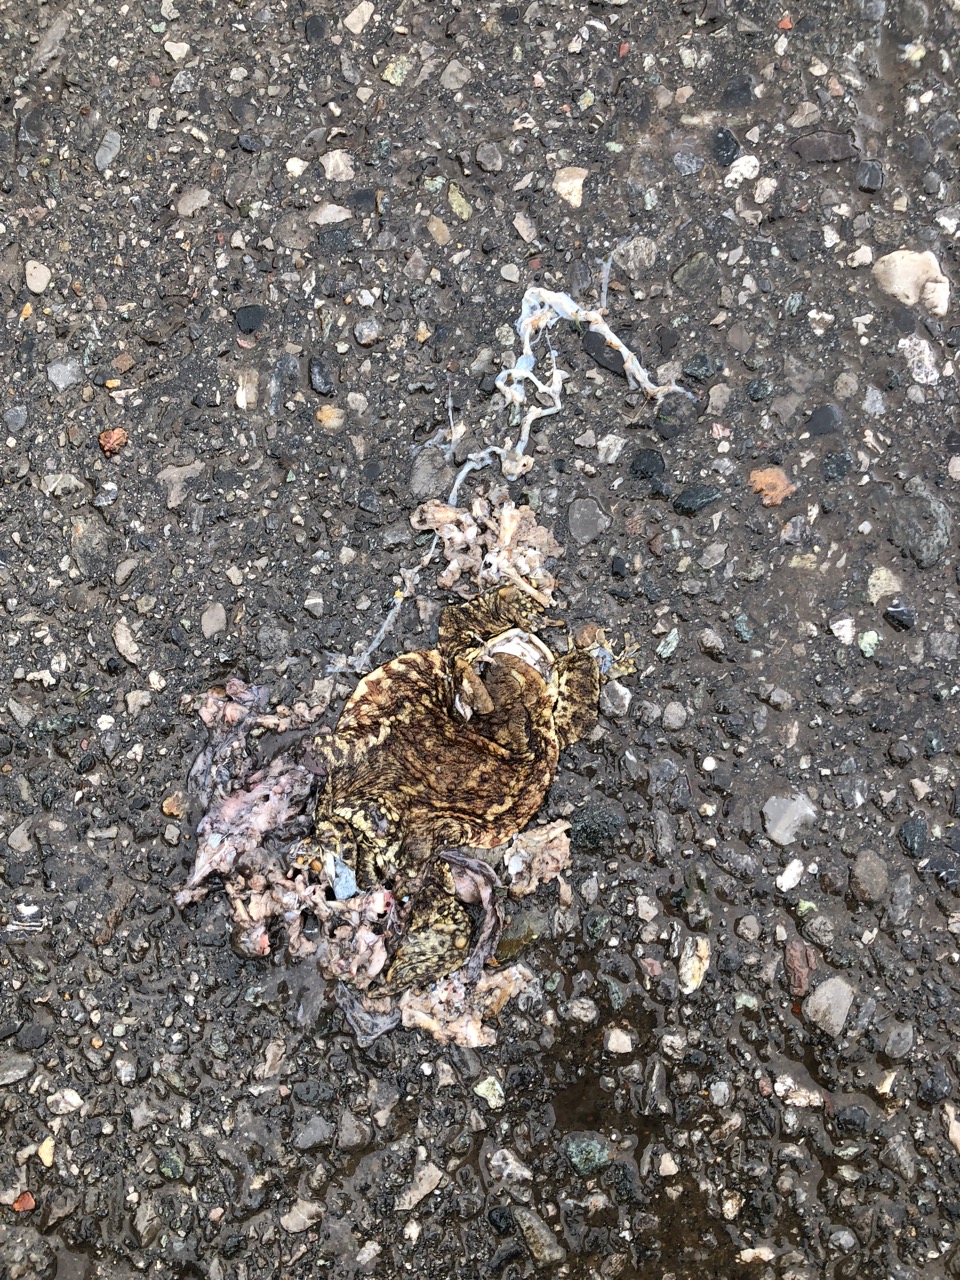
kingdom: Animalia
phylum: Chordata
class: Amphibia
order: Anura
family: Bufonidae
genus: Bufo
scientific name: Bufo bufo
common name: Common toad
